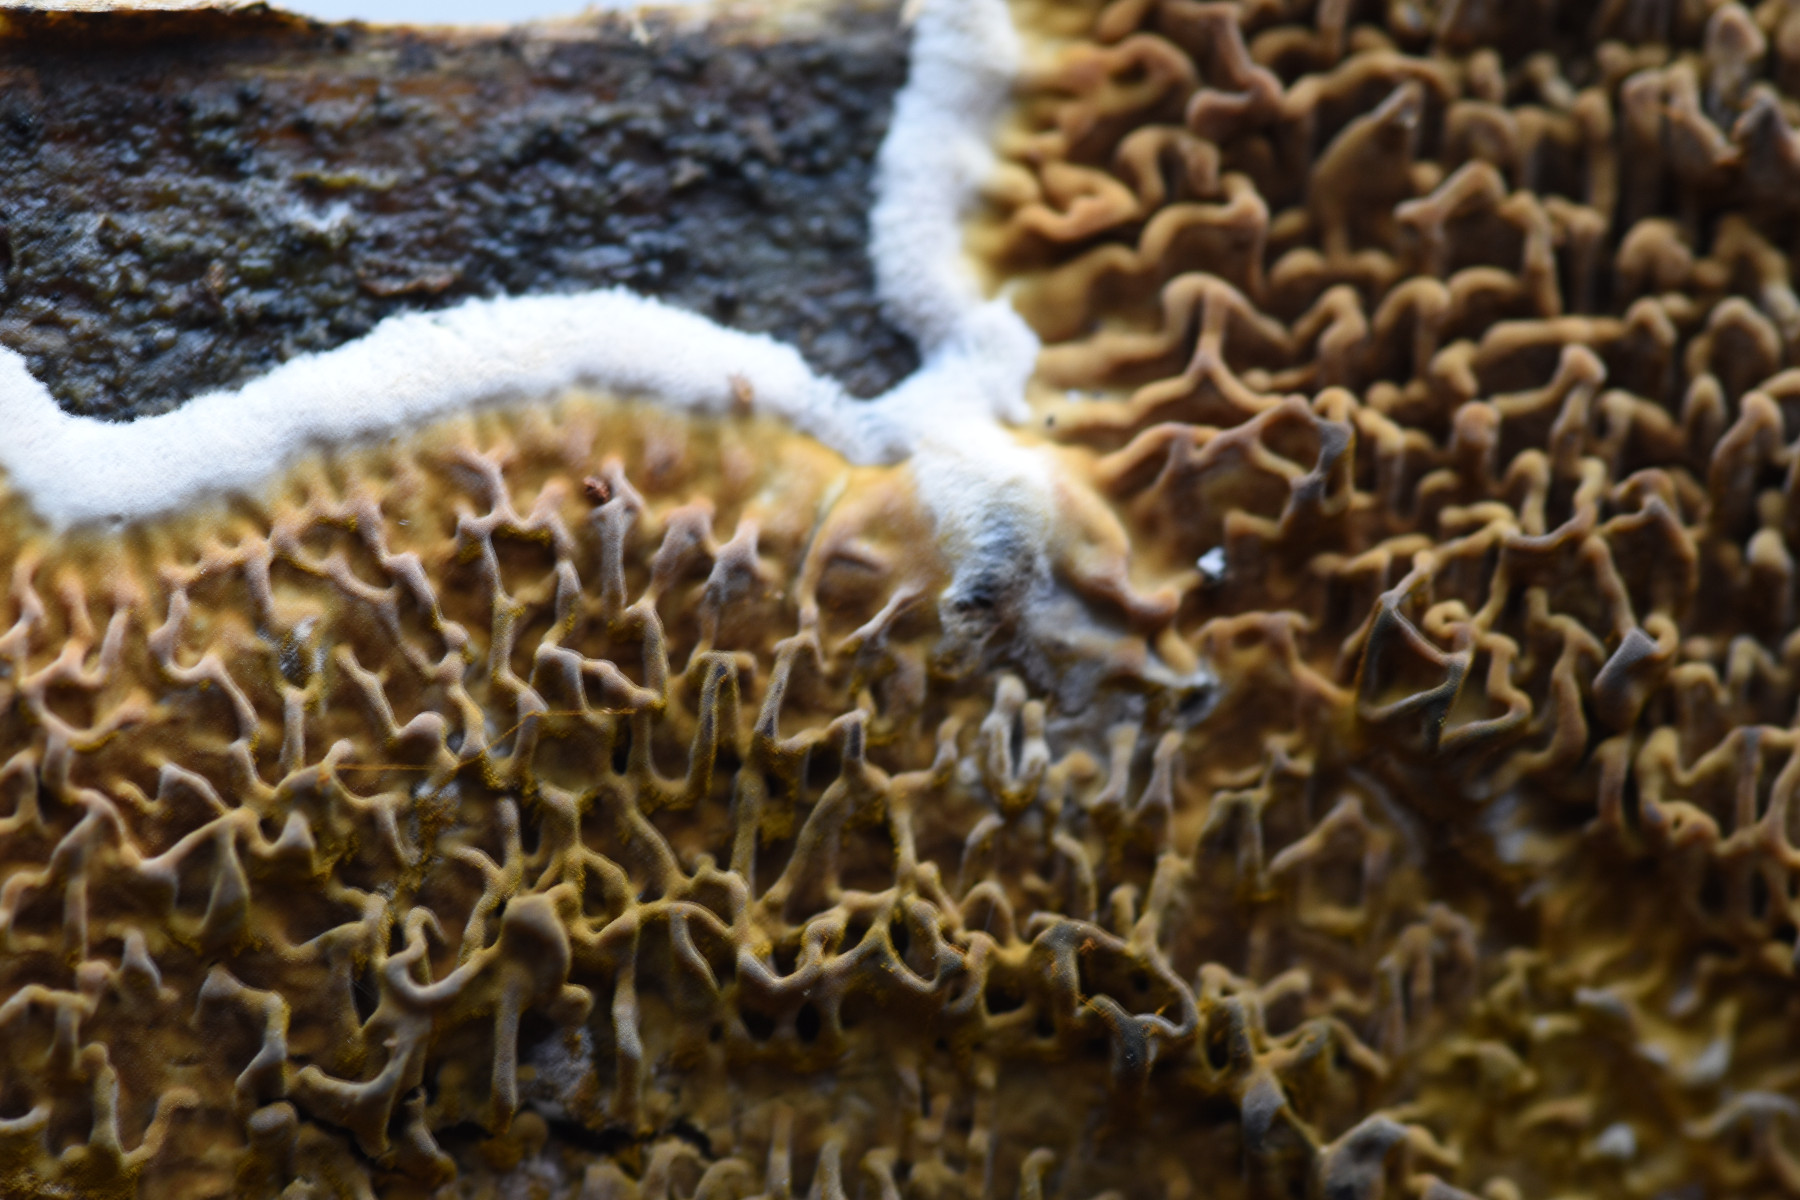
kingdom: Fungi
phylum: Basidiomycota
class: Agaricomycetes
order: Boletales
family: Serpulaceae
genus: Serpula
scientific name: Serpula himantioides
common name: tyndkødet hussvamp
